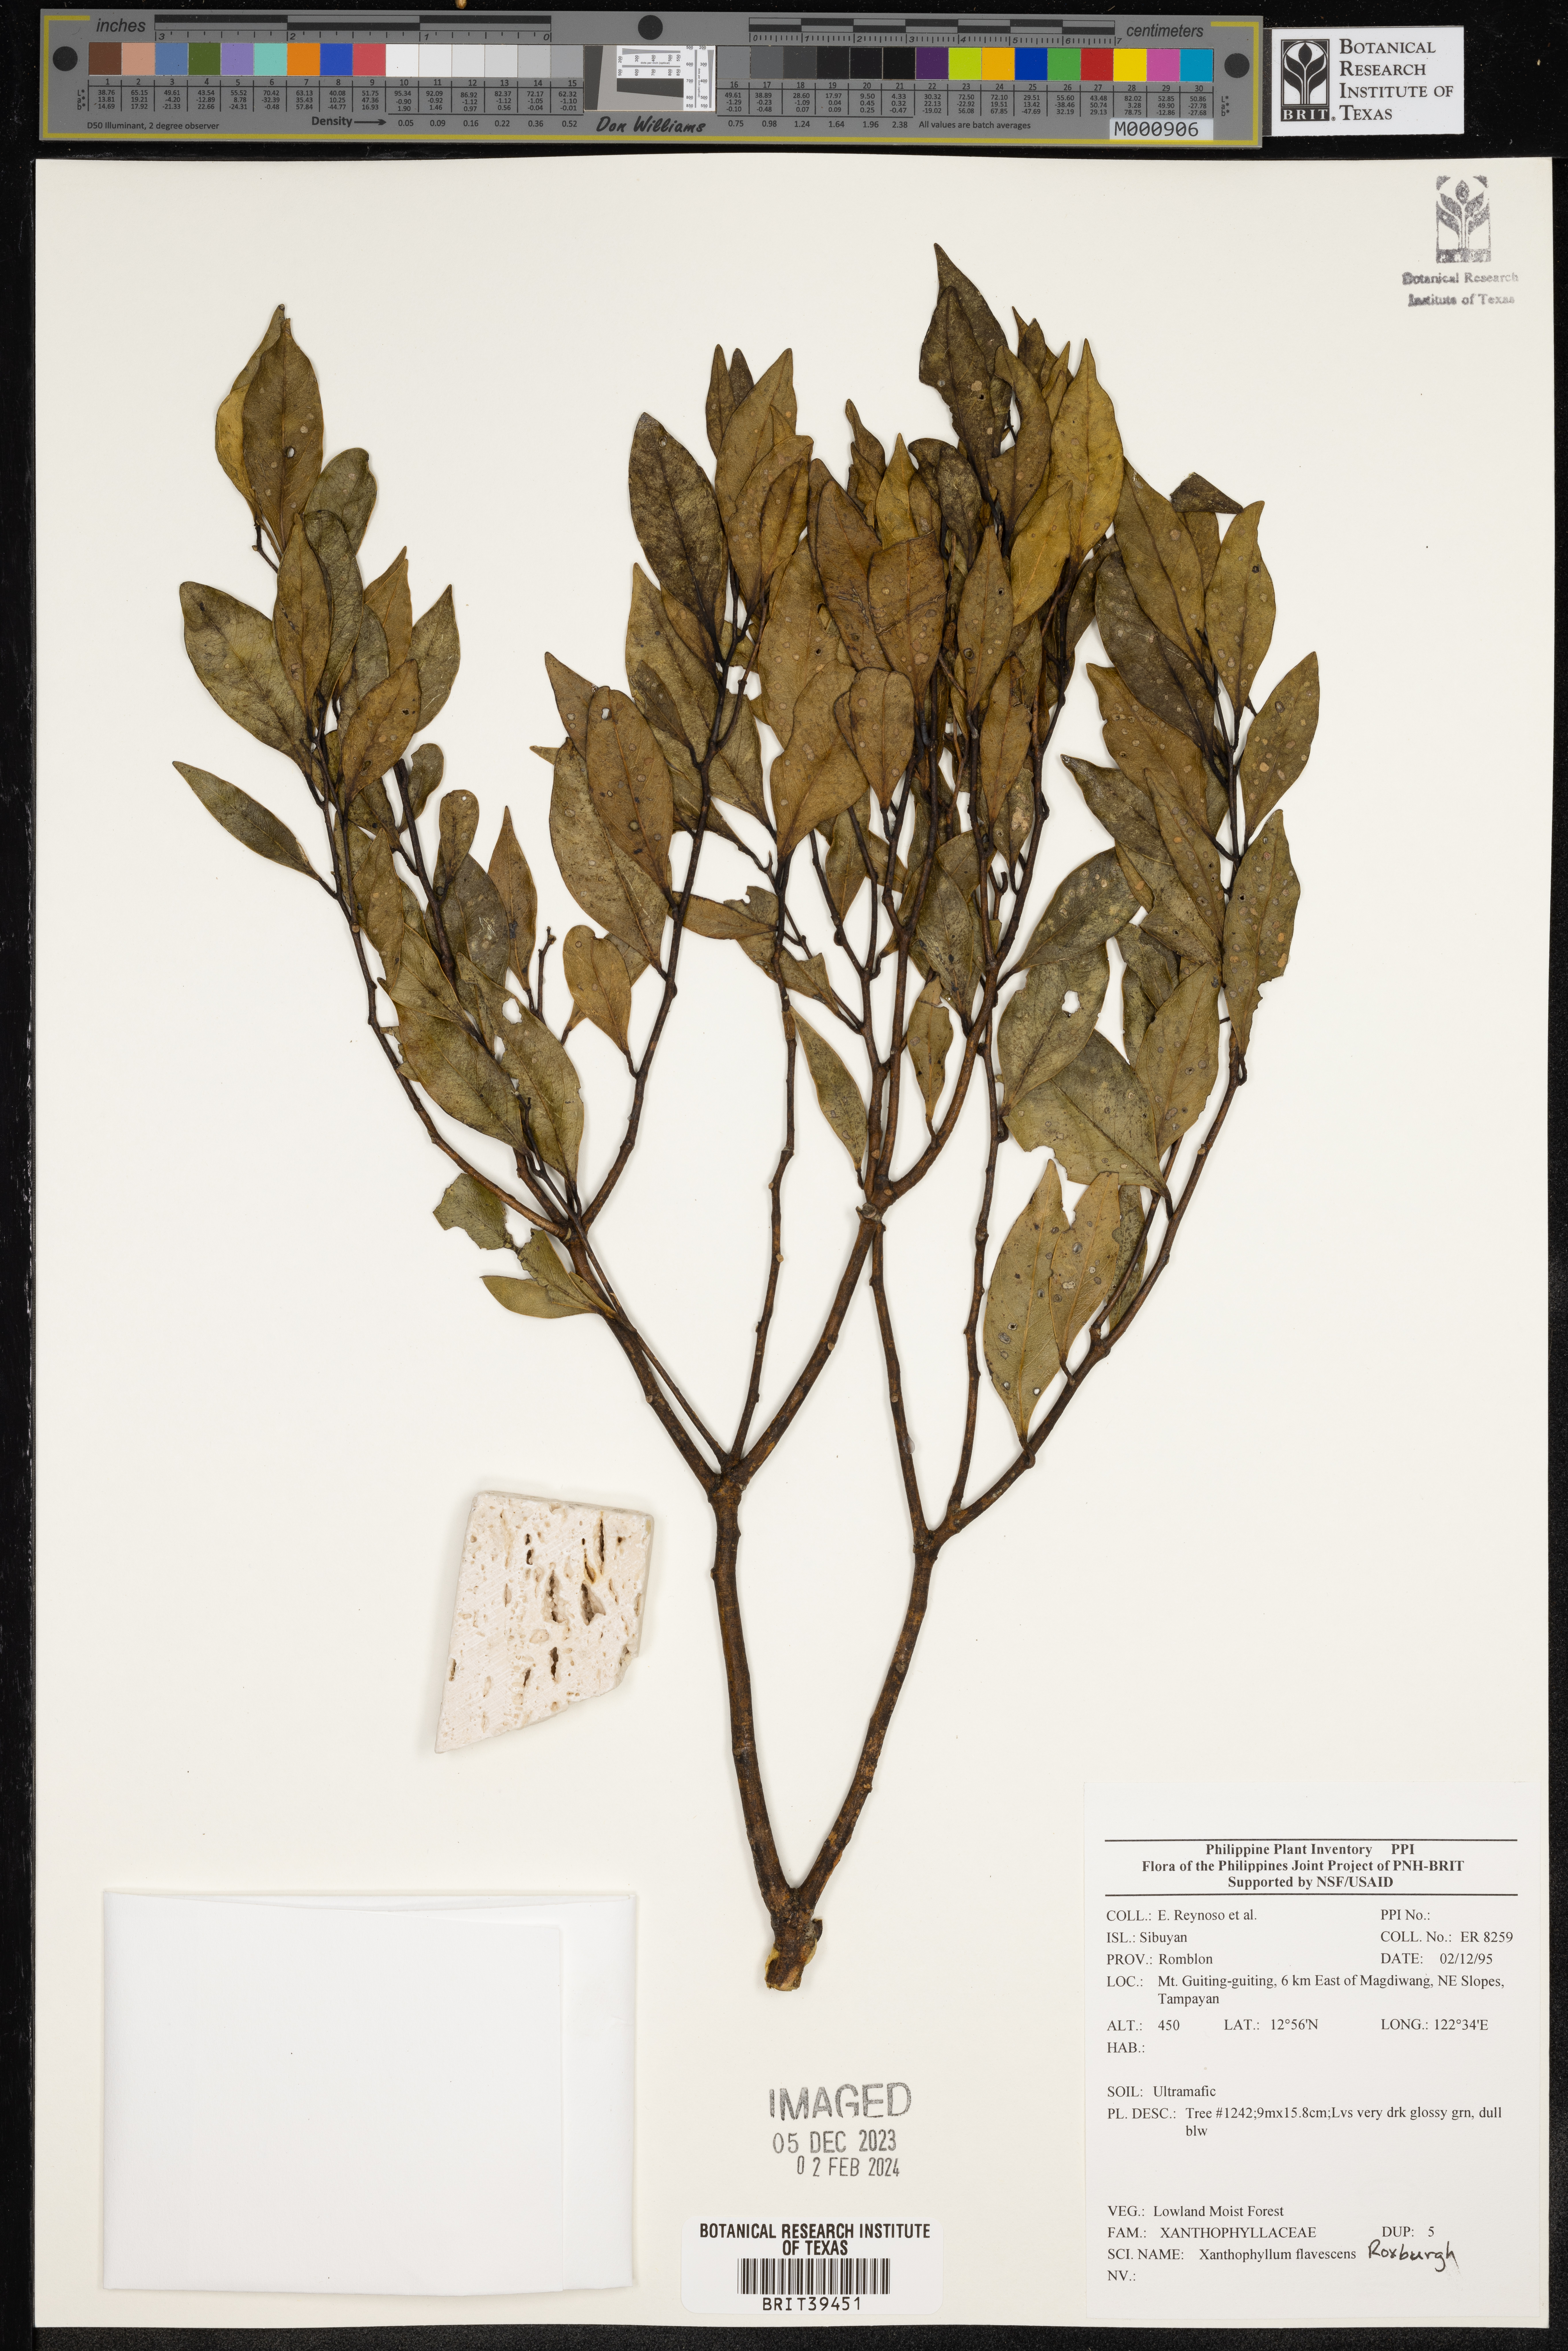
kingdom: Plantae
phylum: Tracheophyta
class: Magnoliopsida
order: Fabales
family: Polygalaceae
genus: Xanthophyllum
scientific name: Xanthophyllum flavescens
